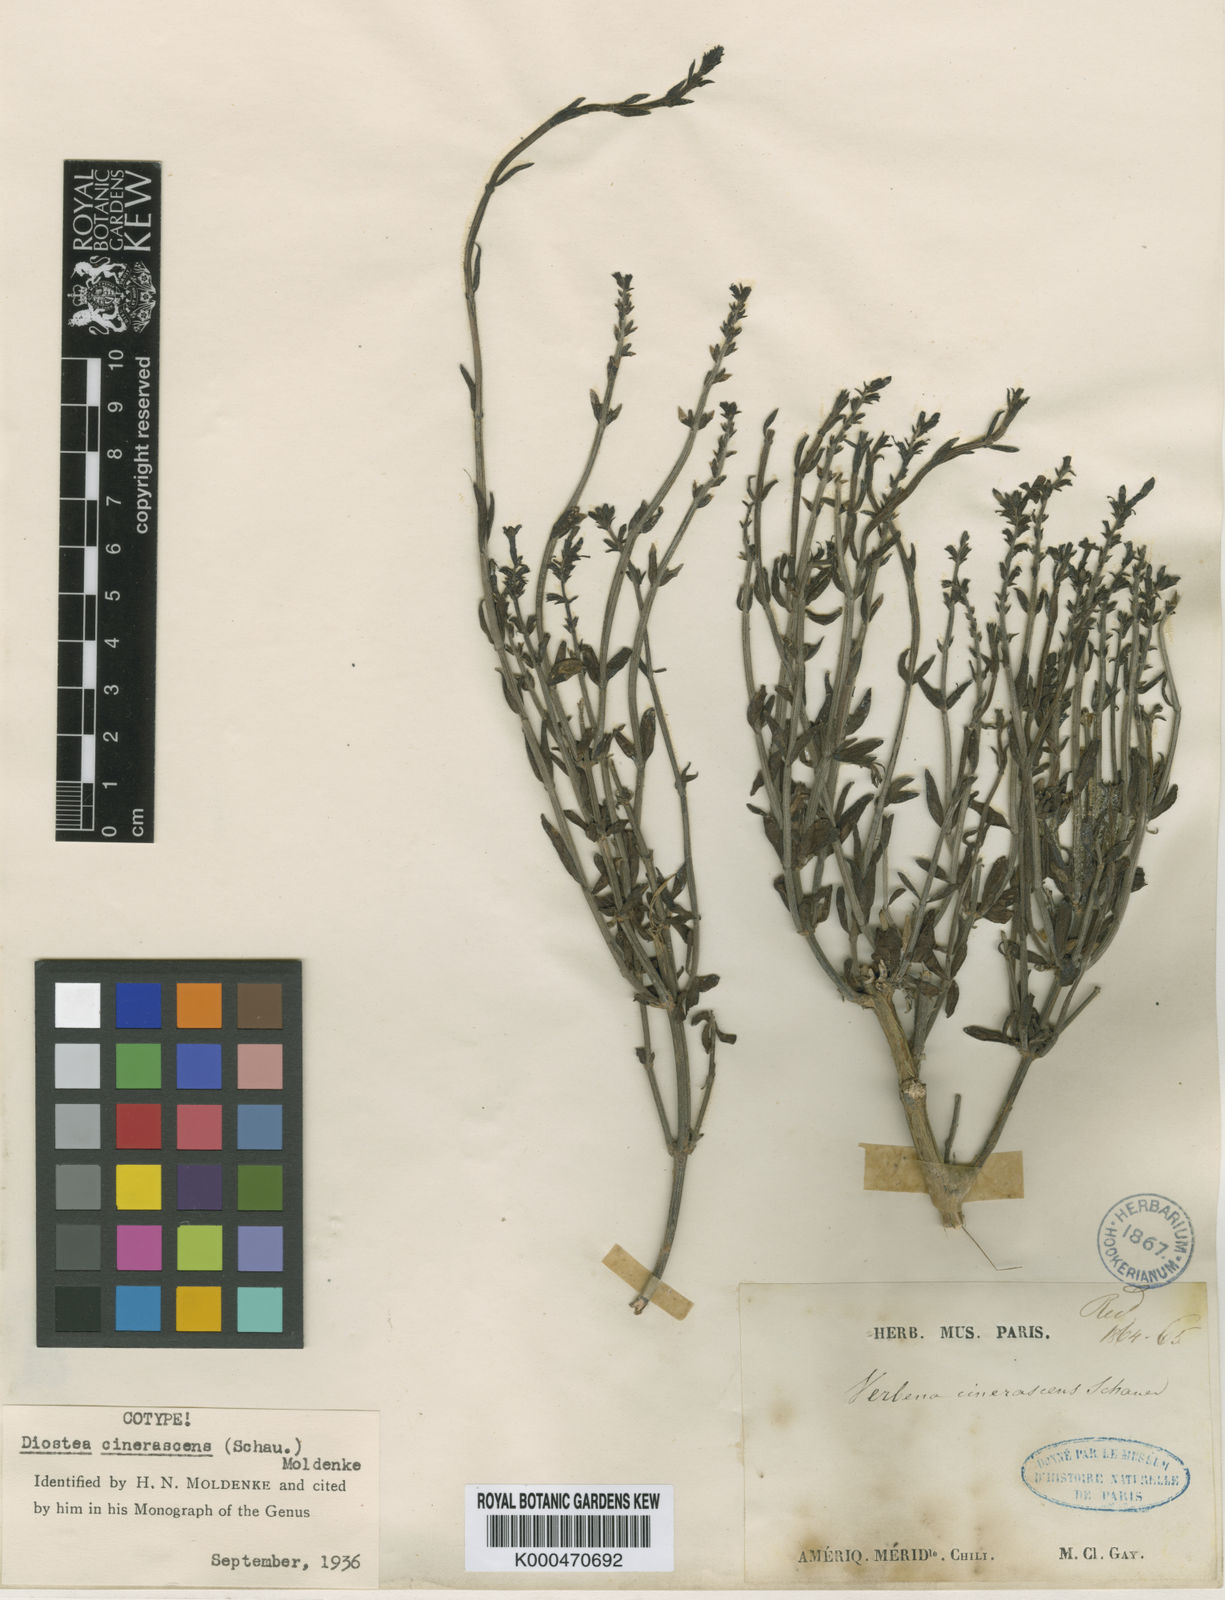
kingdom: Plantae
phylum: Tracheophyta
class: Magnoliopsida
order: Lamiales
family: Verbenaceae
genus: Mulguraea
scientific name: Mulguraea cinerascens
